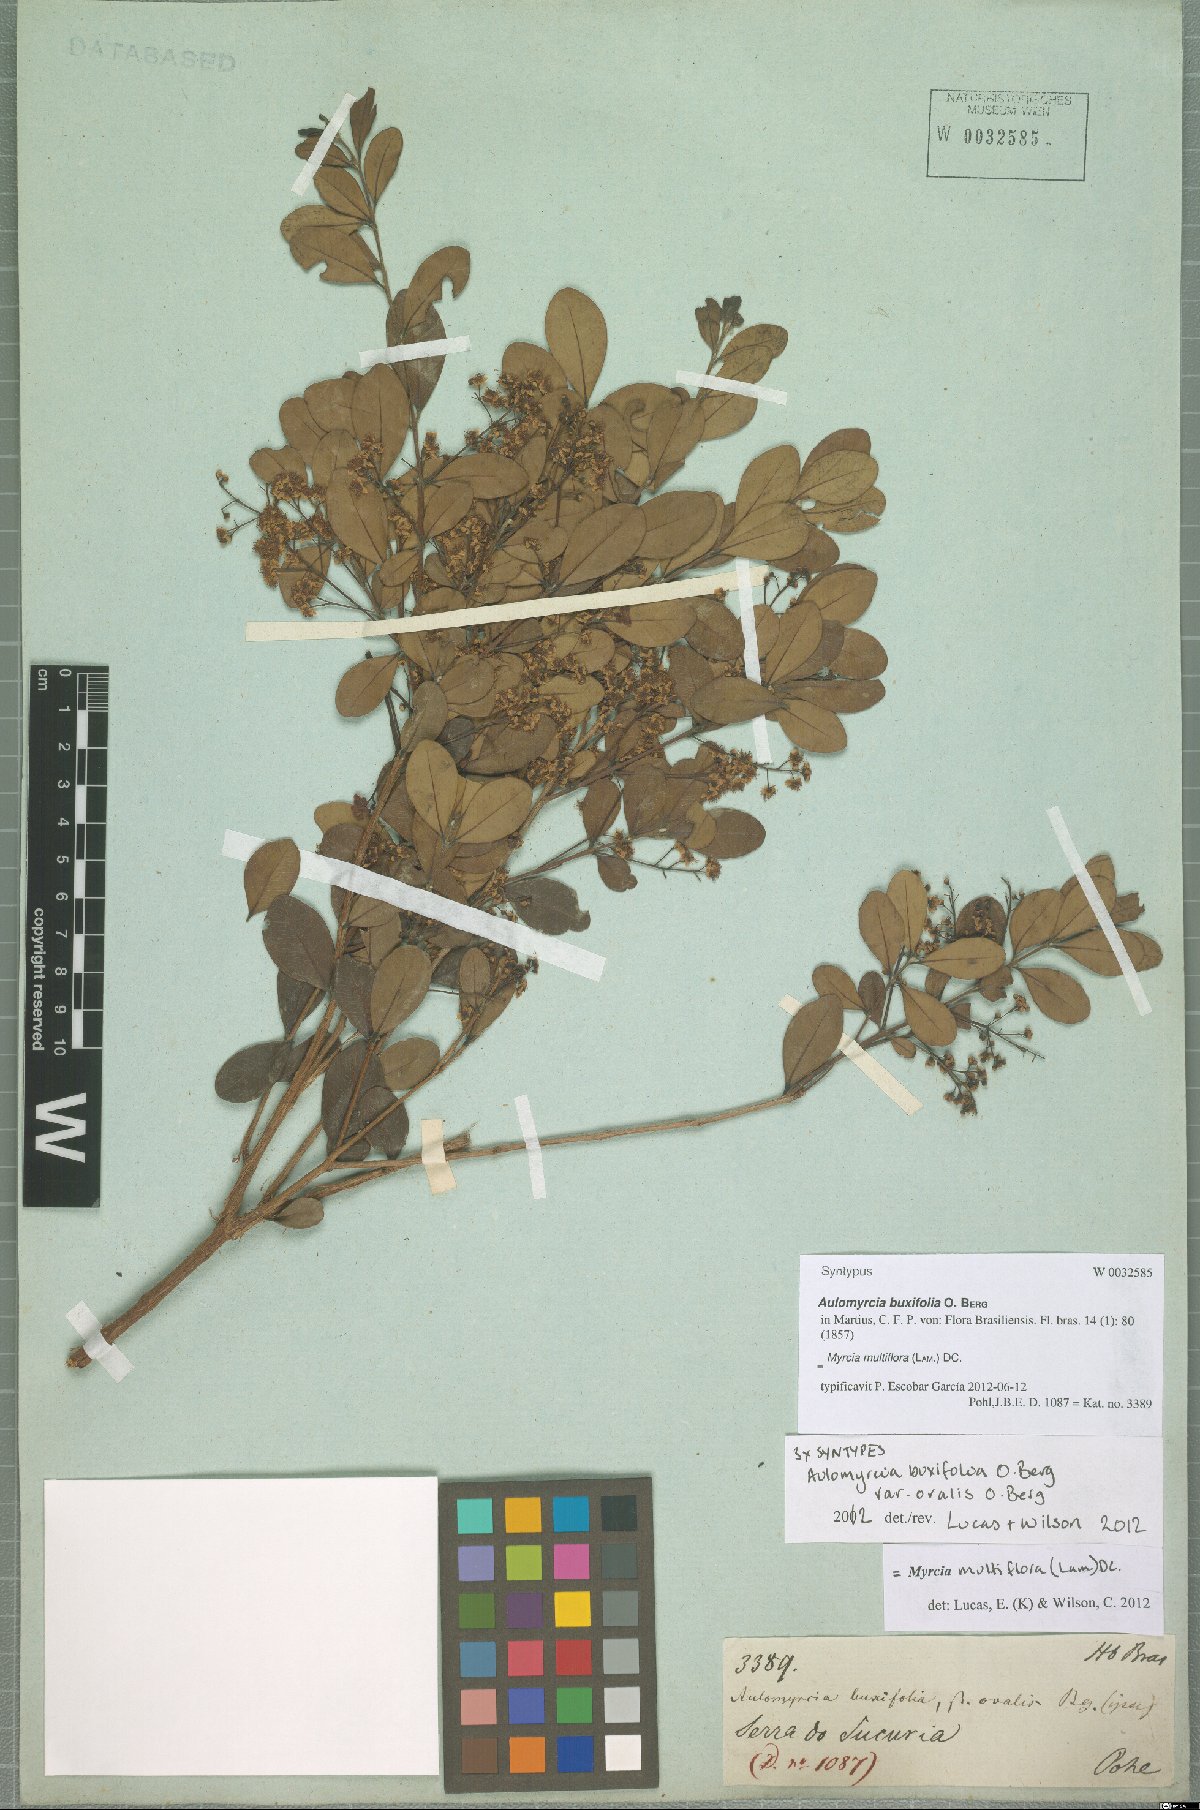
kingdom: Plantae
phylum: Tracheophyta
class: Magnoliopsida
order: Myrtales
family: Myrtaceae
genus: Myrcia
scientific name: Myrcia multiflora
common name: Pedra hume
